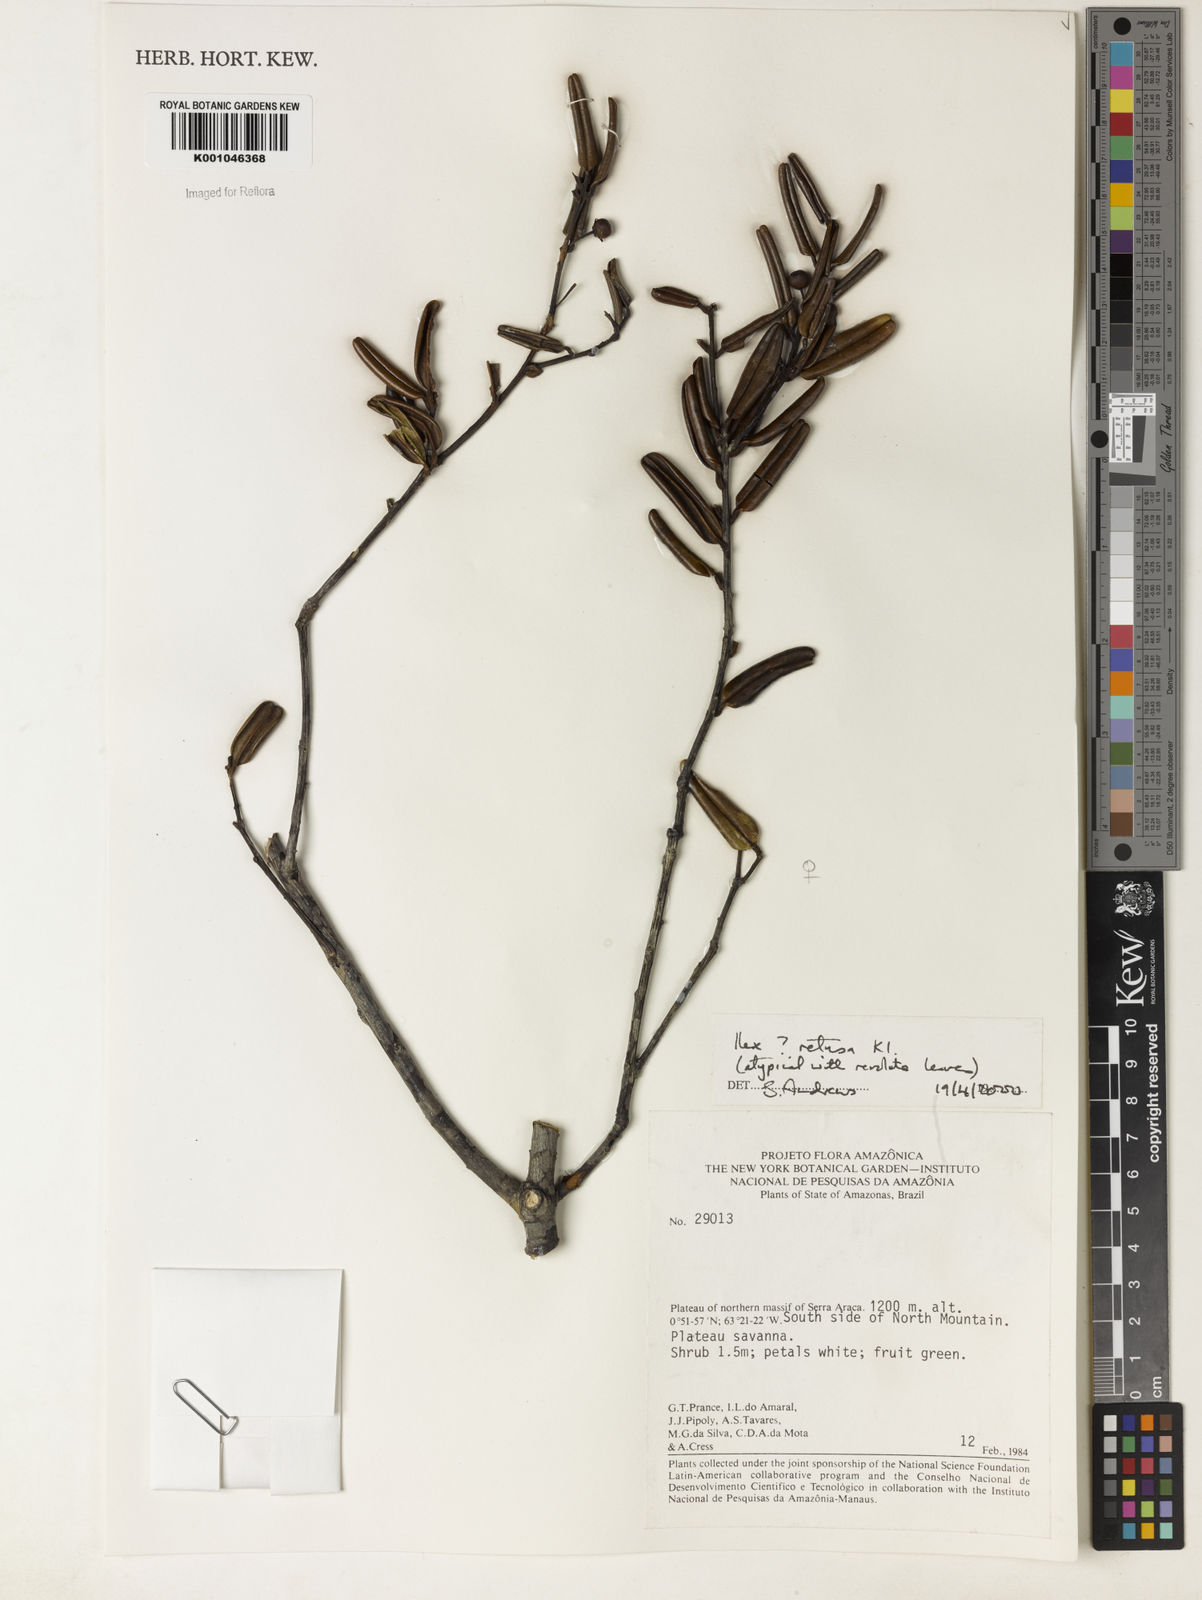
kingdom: Plantae
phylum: Tracheophyta
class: Magnoliopsida
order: Aquifoliales
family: Aquifoliaceae
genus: Ilex
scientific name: Ilex
